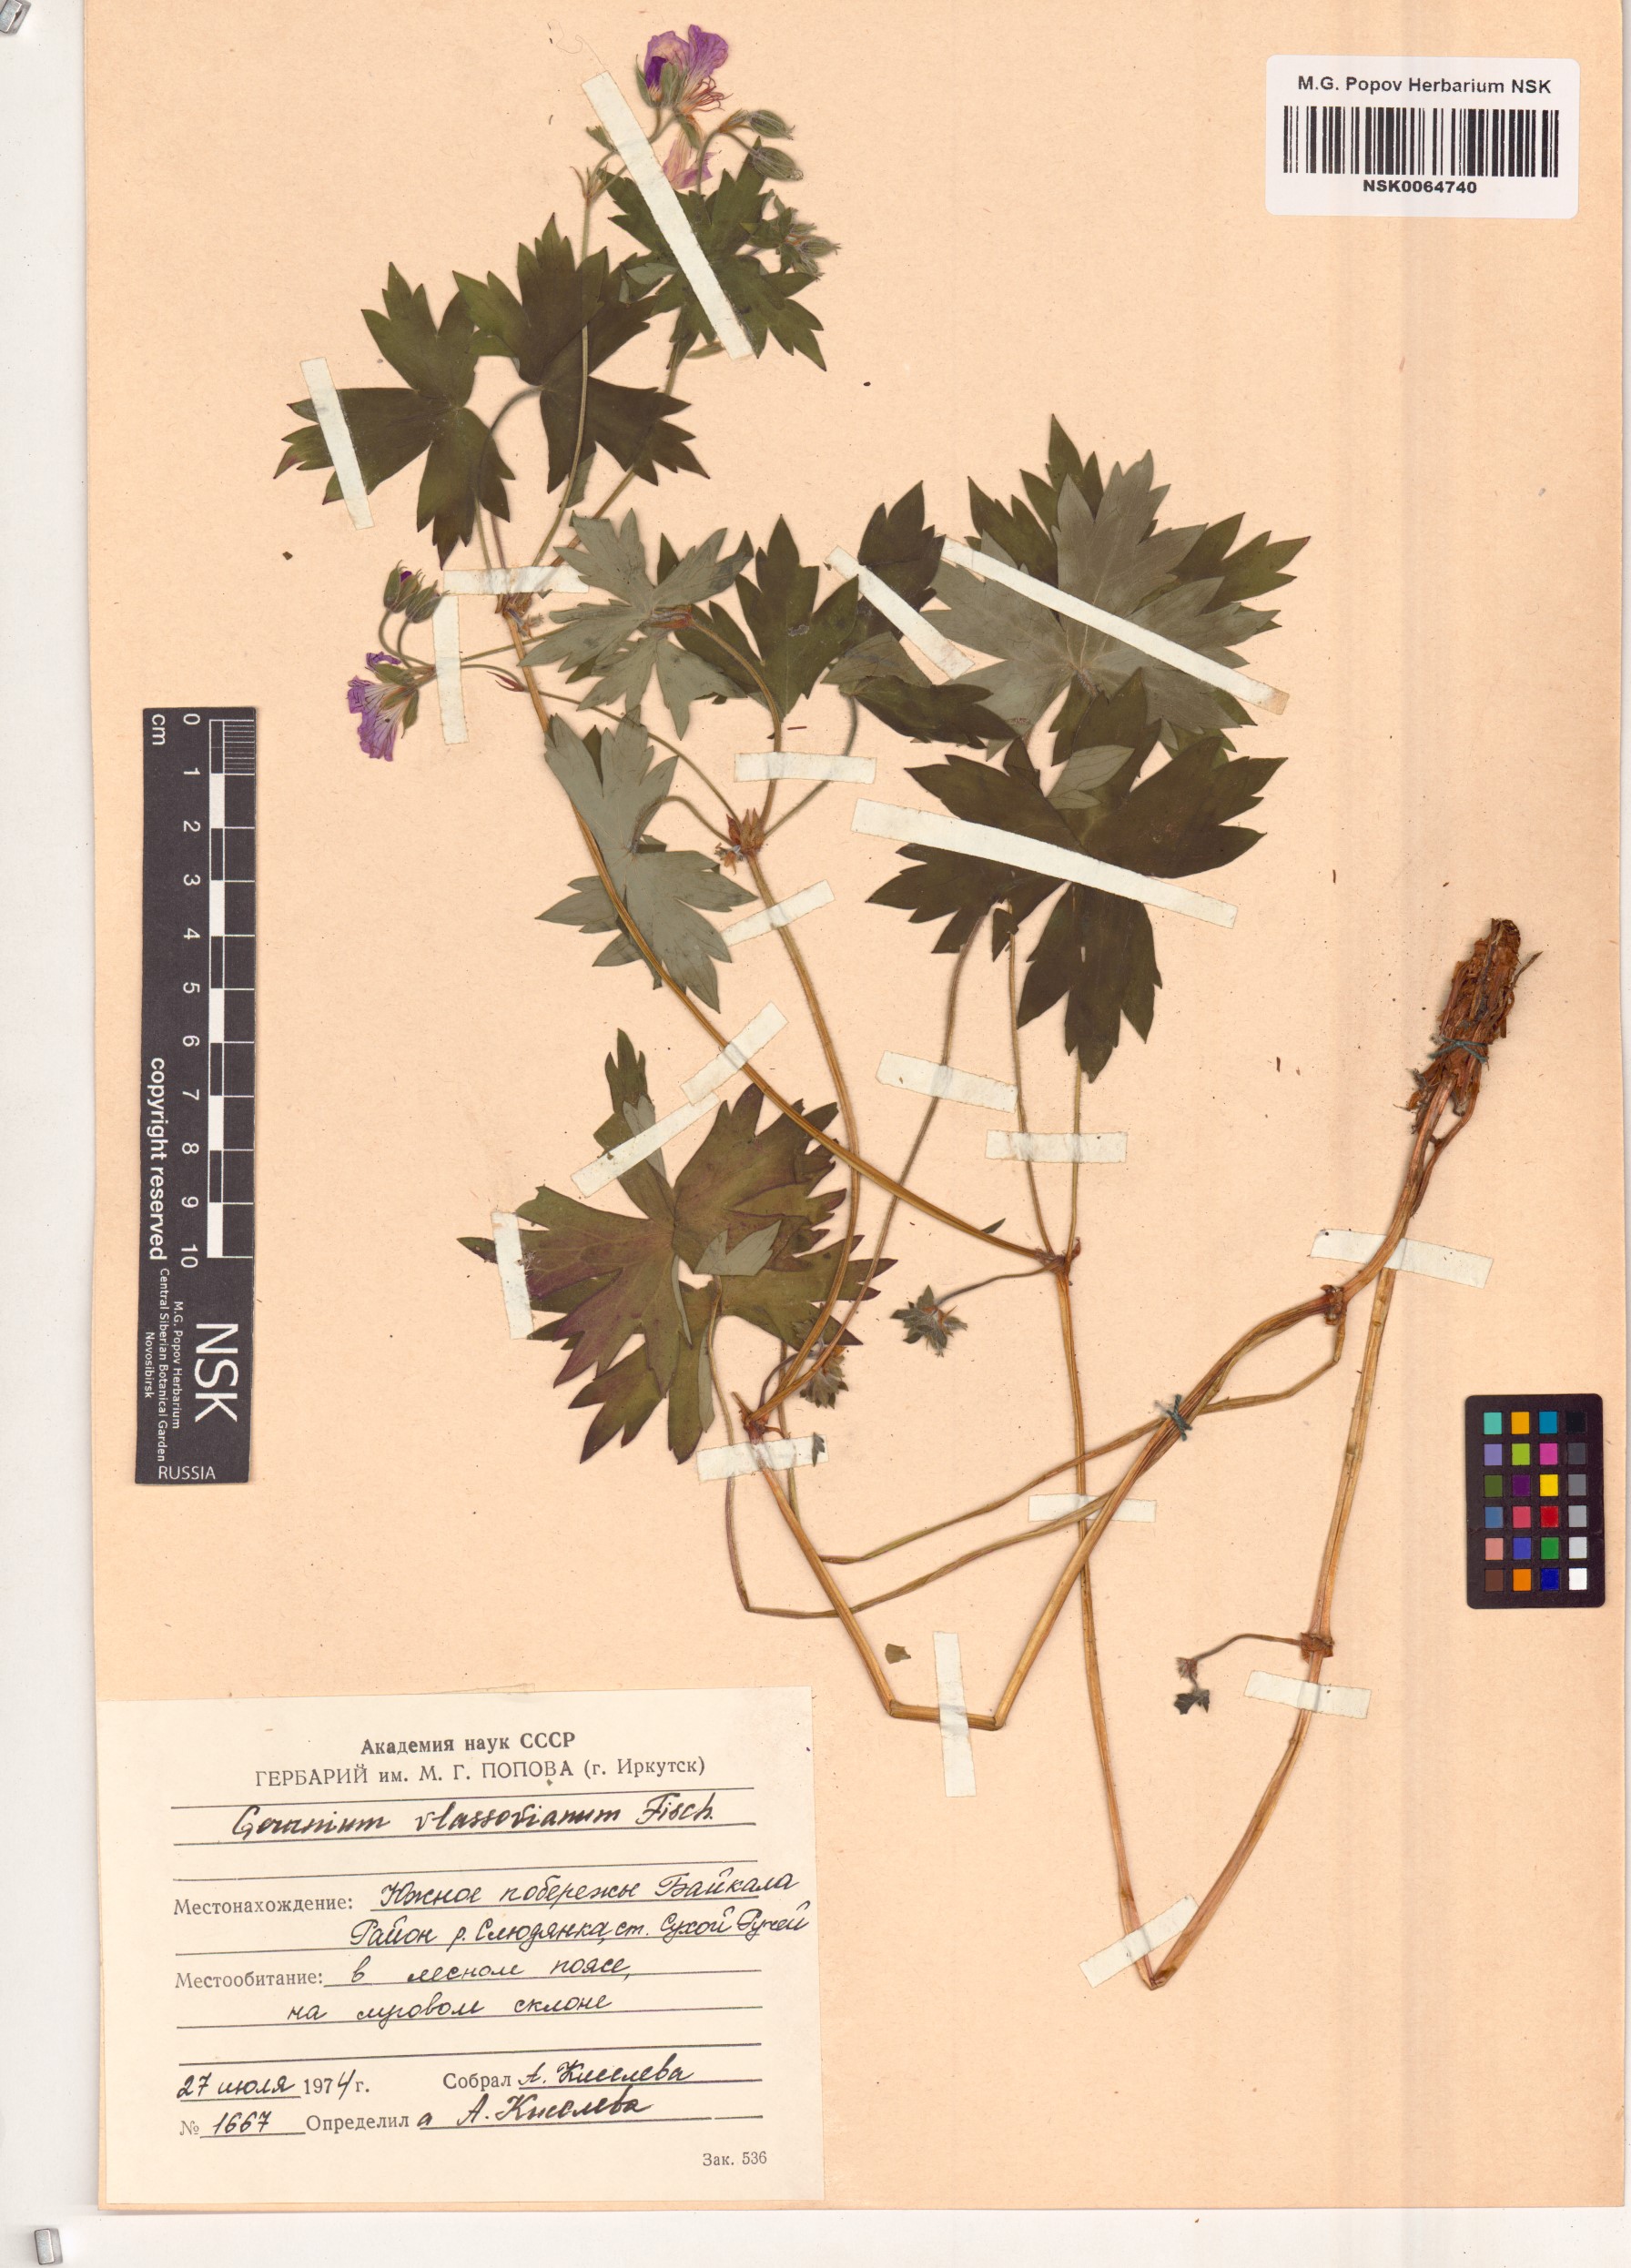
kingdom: Plantae
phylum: Tracheophyta
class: Magnoliopsida
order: Geraniales
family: Geraniaceae
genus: Geranium
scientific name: Geranium wlassovianum
